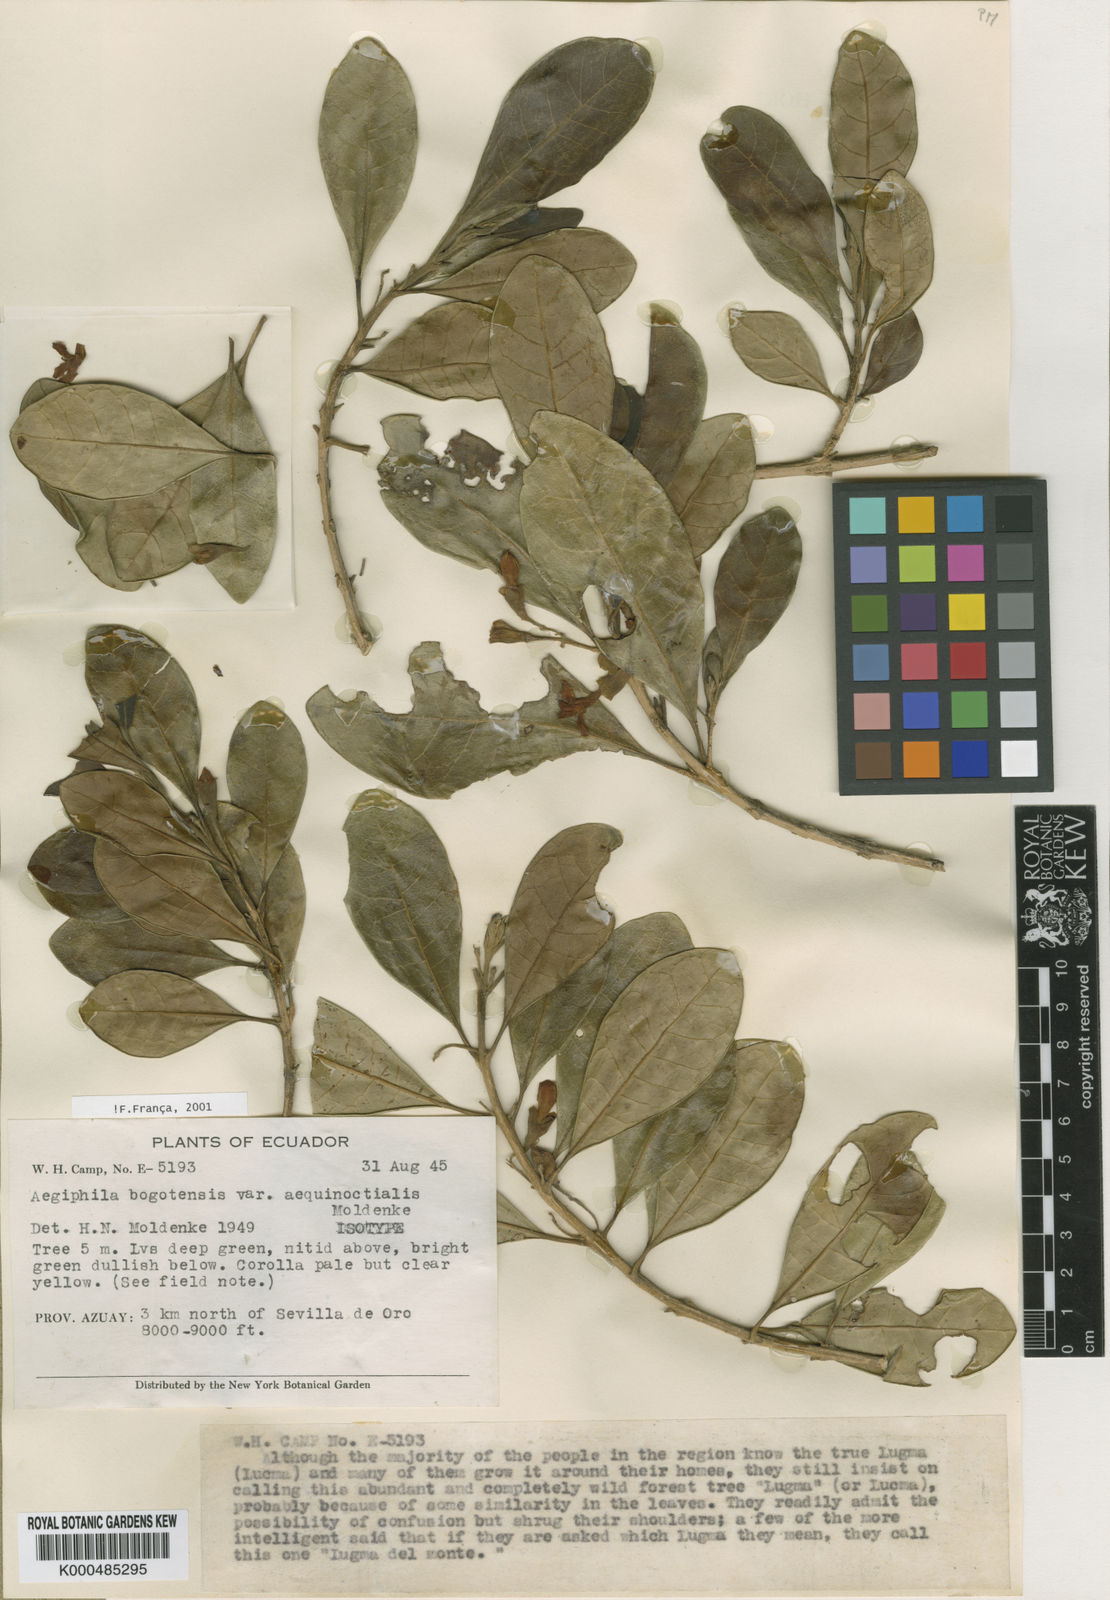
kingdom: Plantae
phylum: Tracheophyta
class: Magnoliopsida
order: Lamiales
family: Lamiaceae
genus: Aegiphila
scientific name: Aegiphila bogotensis
